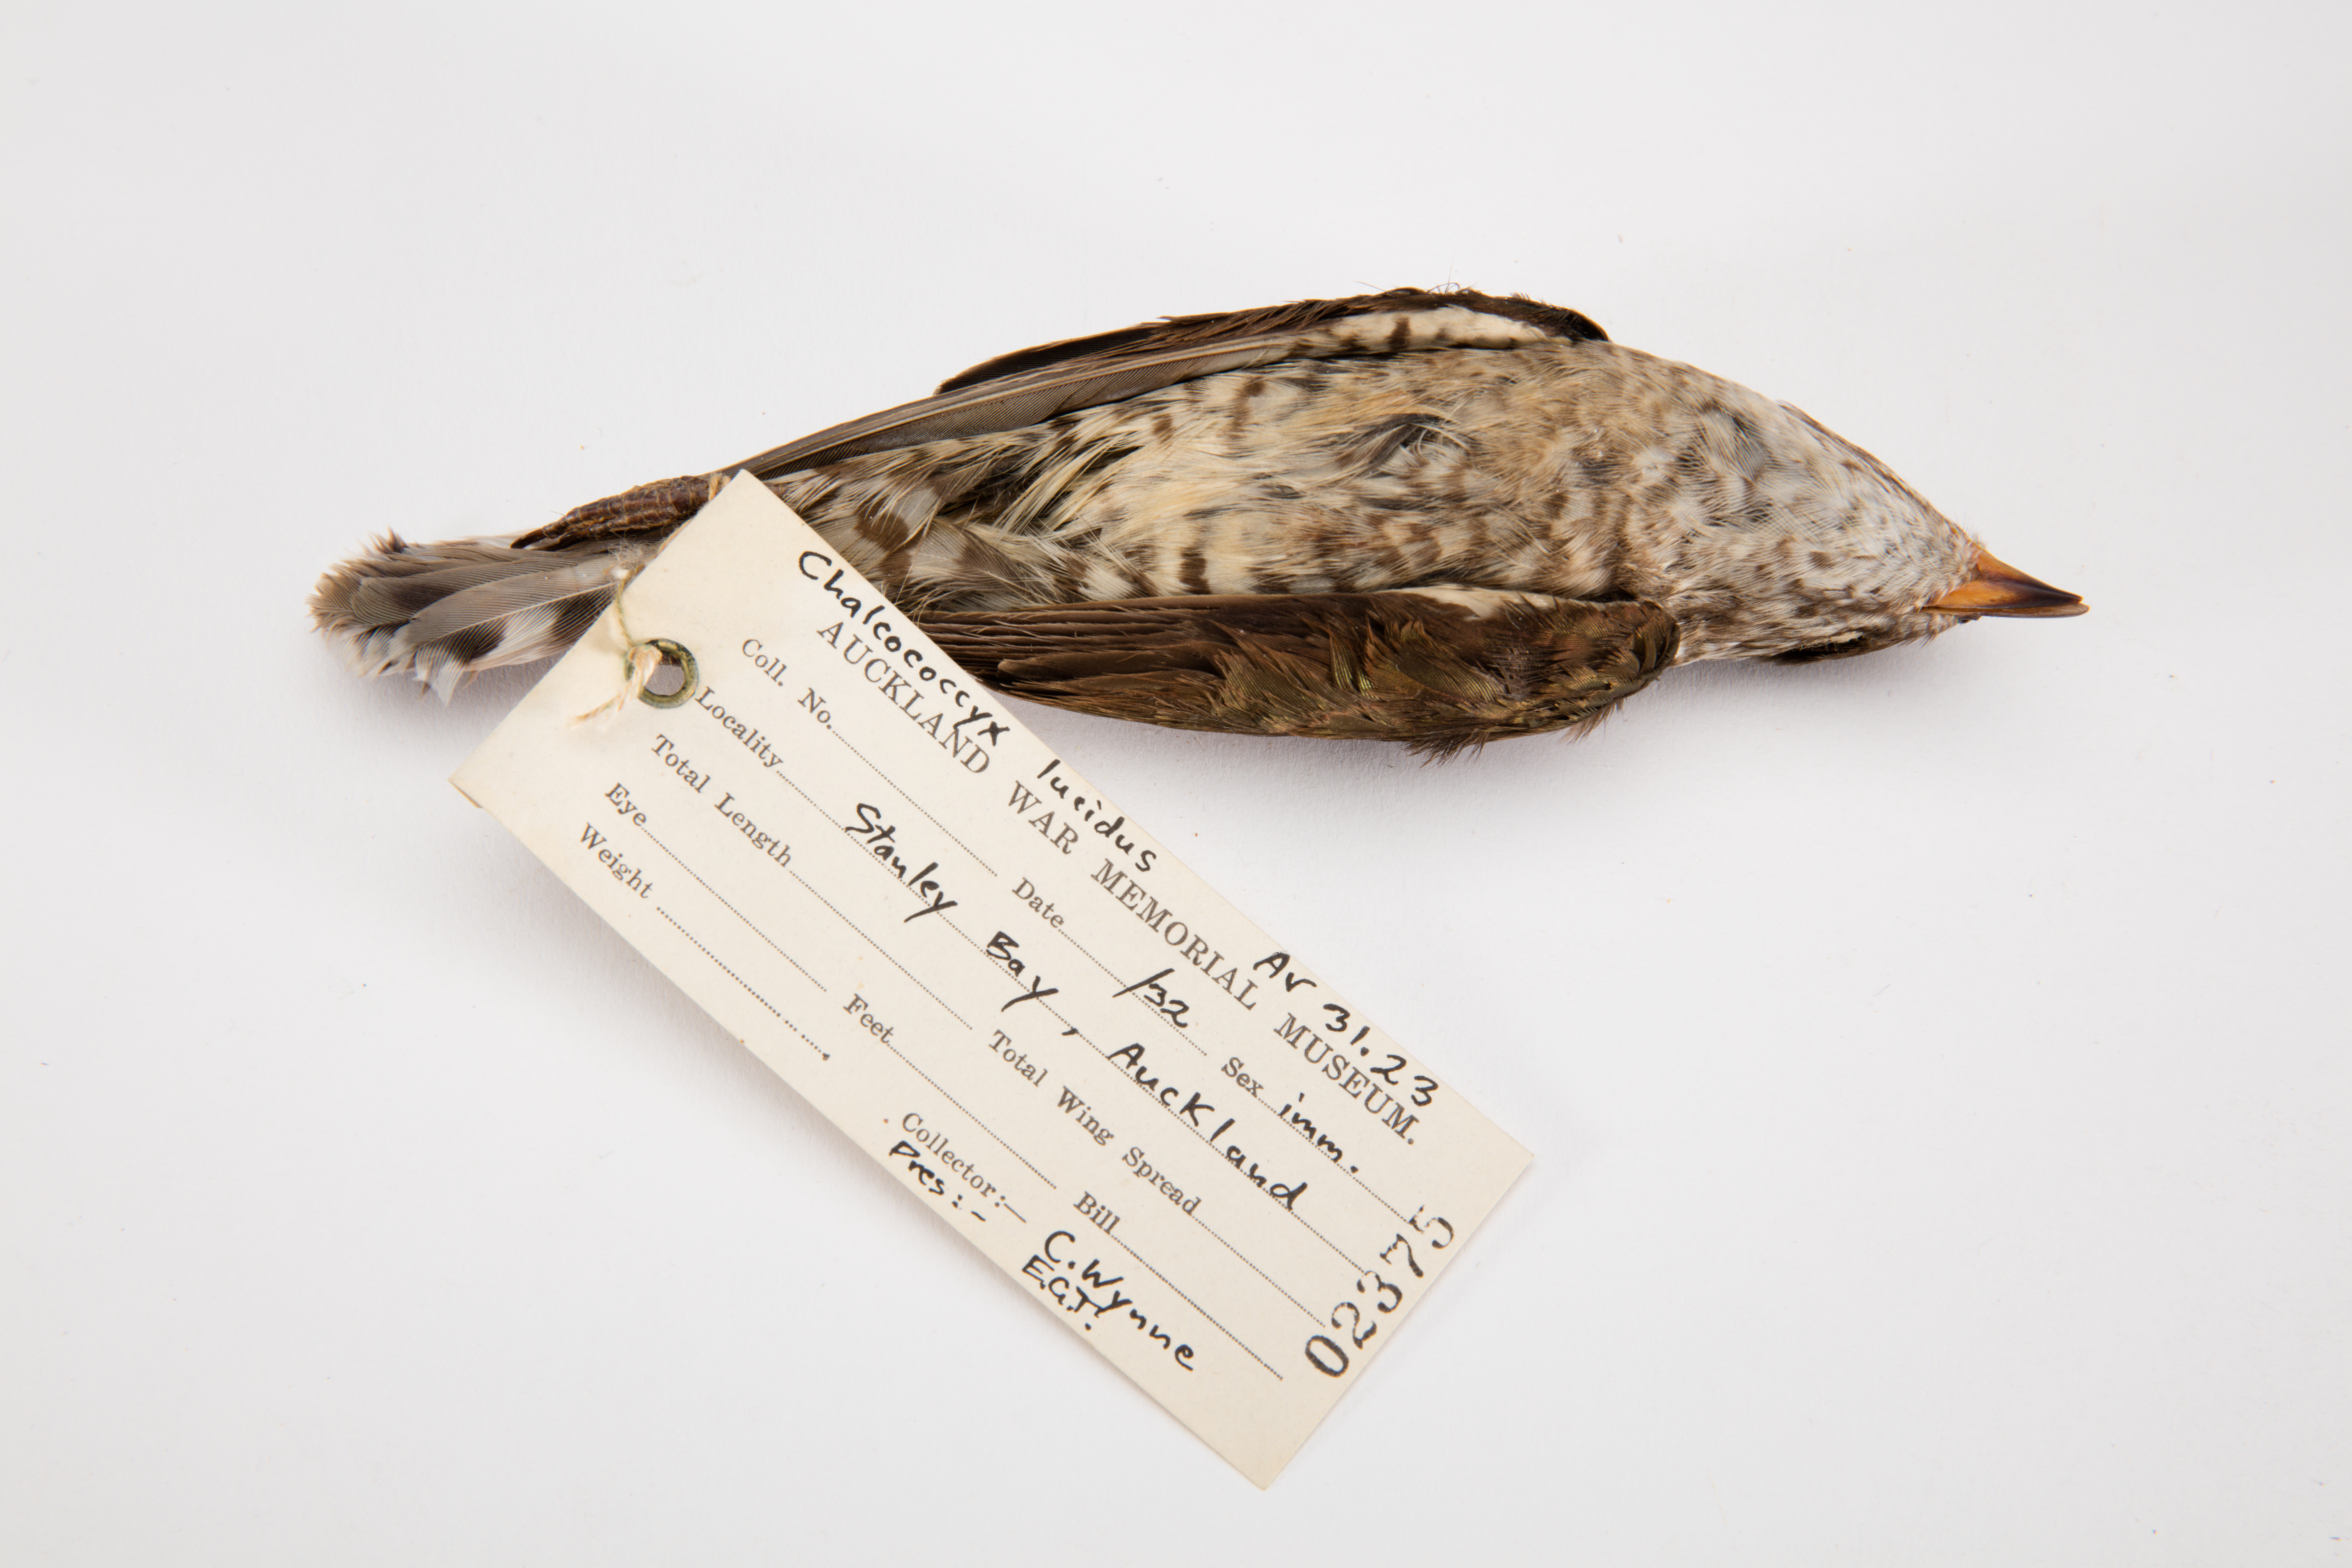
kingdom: Animalia
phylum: Chordata
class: Aves
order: Cuculiformes
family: Cuculidae
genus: Chrysococcyx
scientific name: Chrysococcyx lucidus
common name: Shining bronze cuckoo
